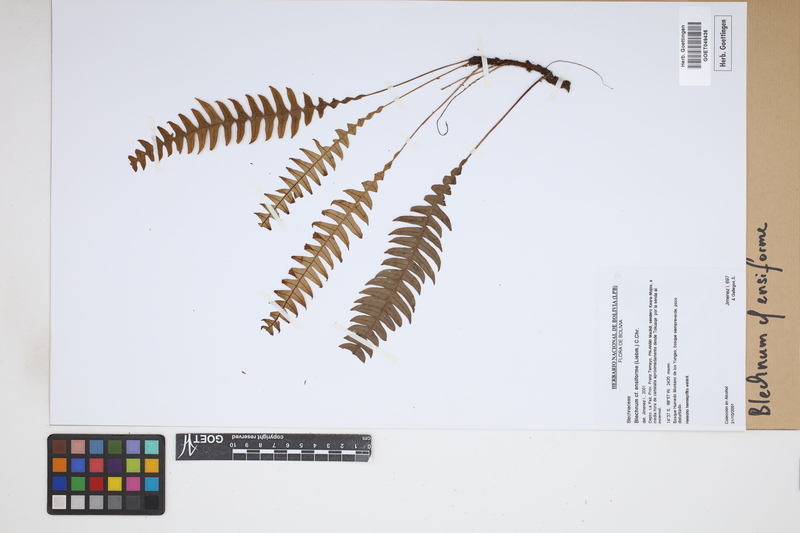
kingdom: Plantae
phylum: Tracheophyta
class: Polypodiopsida
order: Polypodiales
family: Blechnaceae
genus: Lomaridium
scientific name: Lomaridium ensiforme
